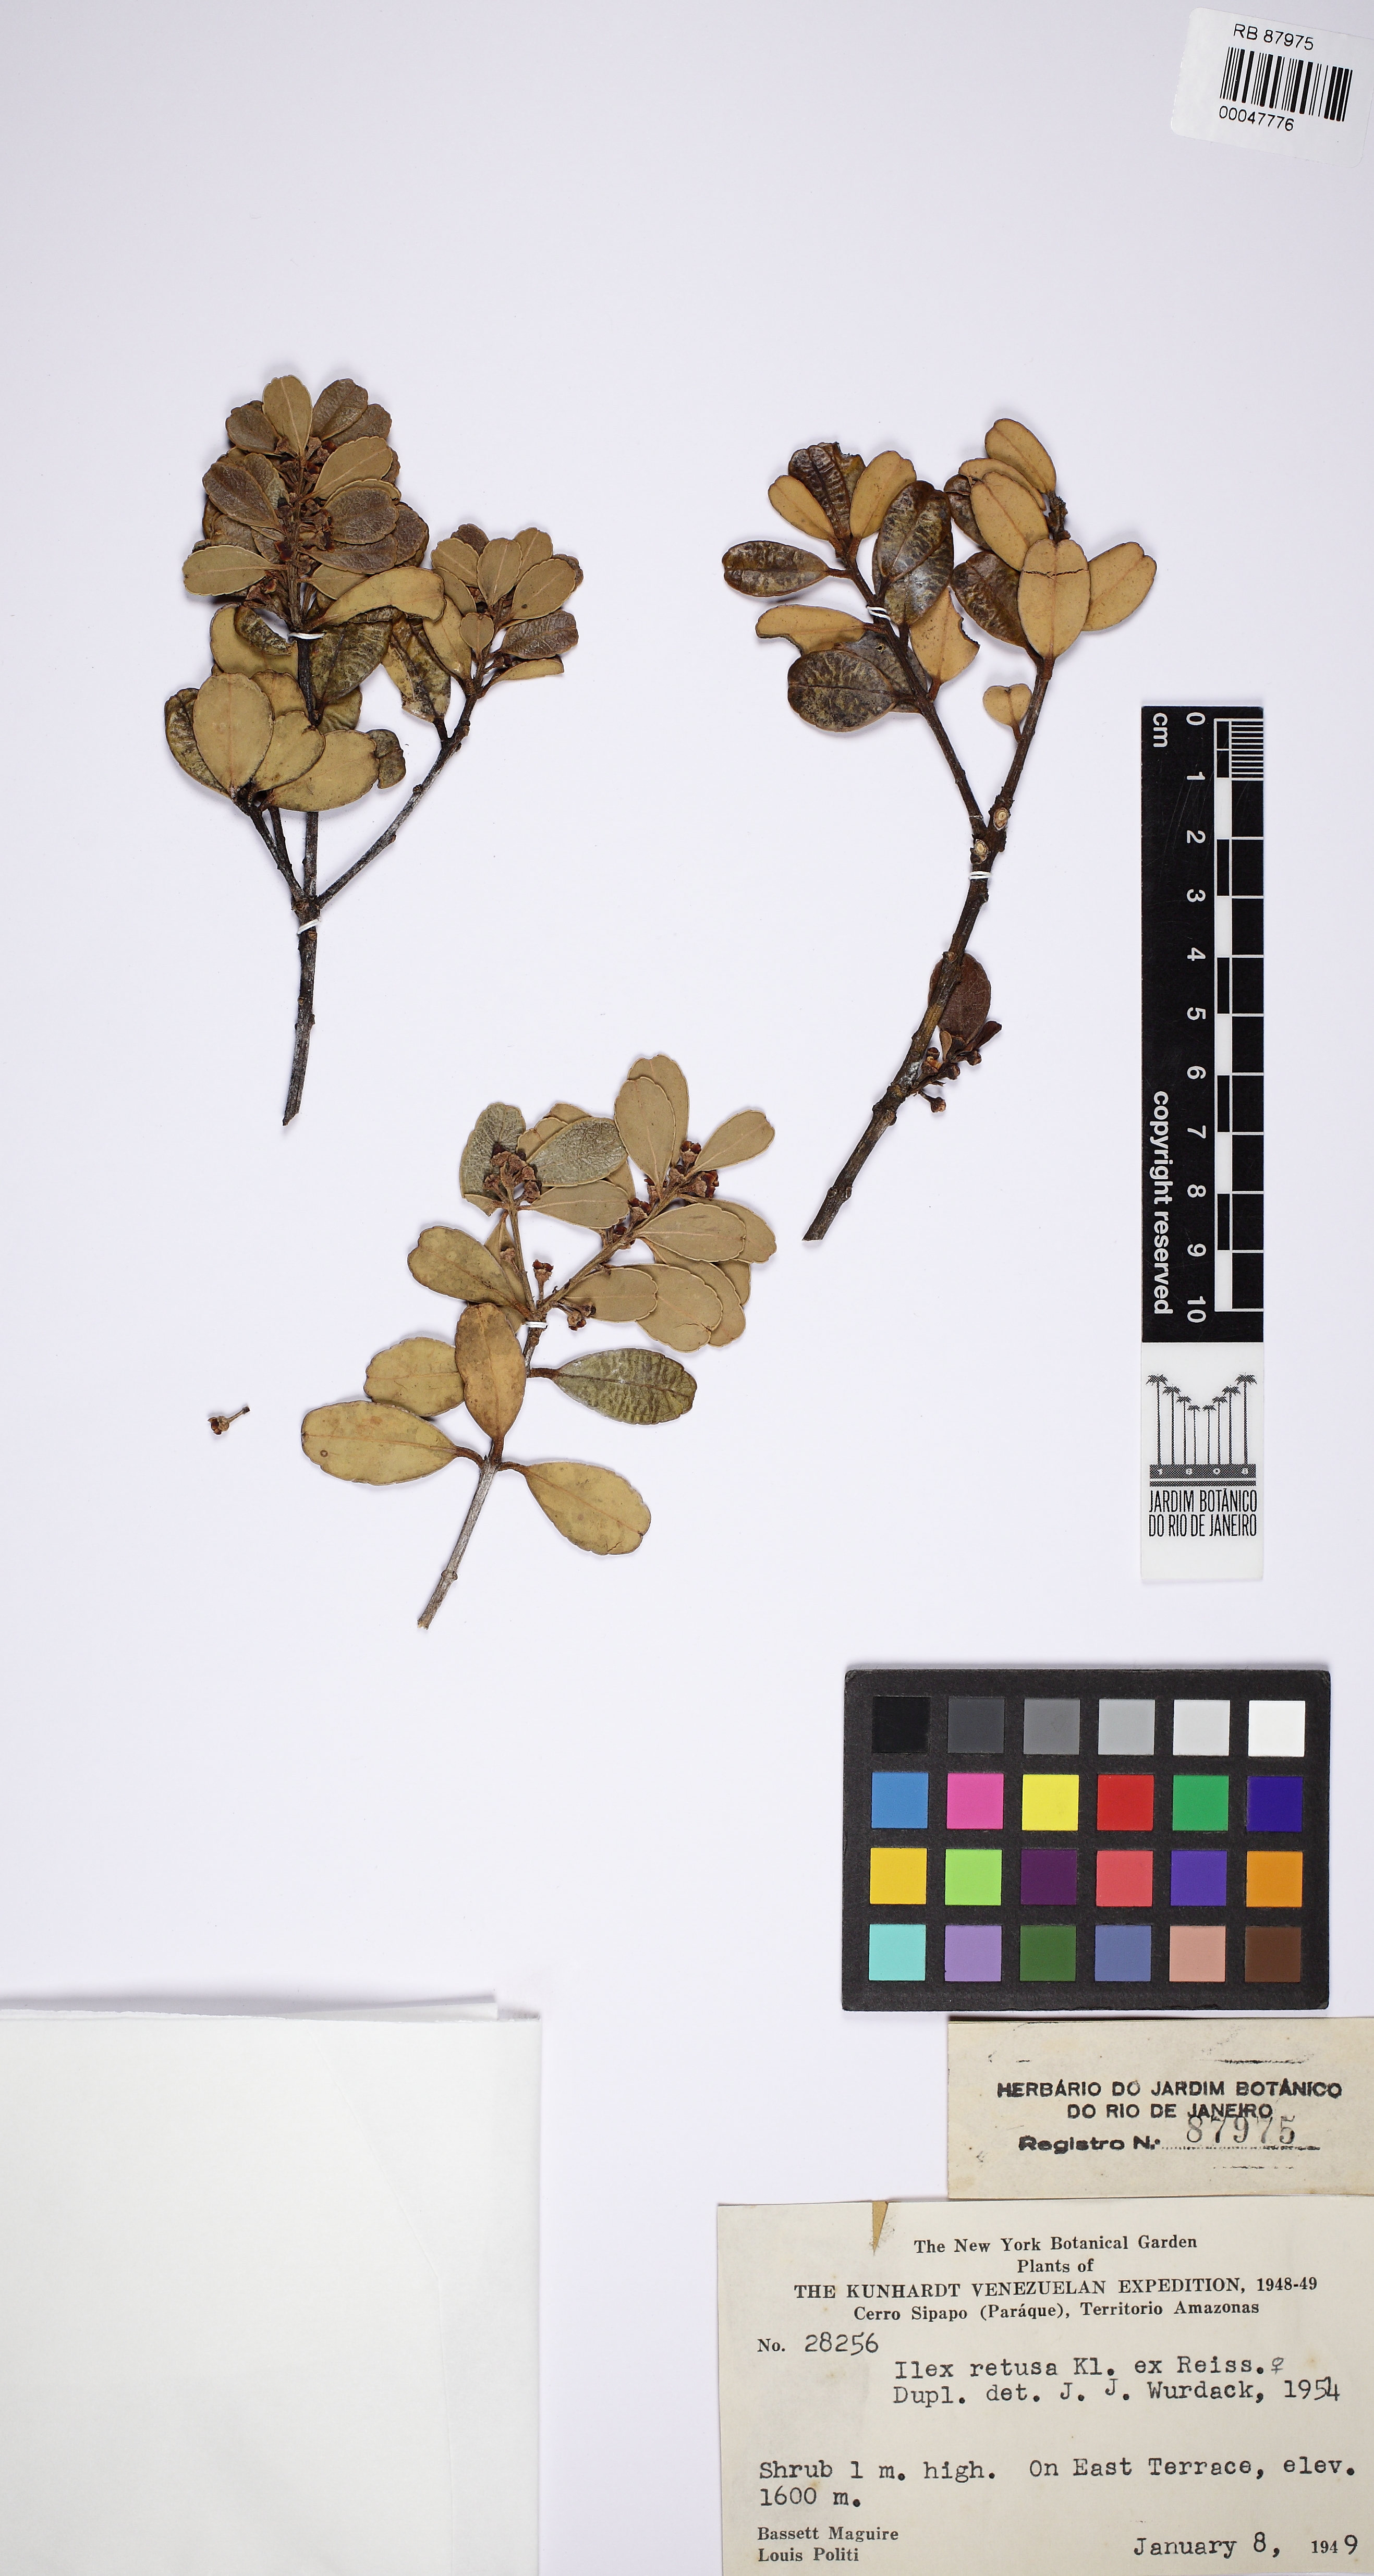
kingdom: Plantae
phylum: Tracheophyta
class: Magnoliopsida
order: Aquifoliales
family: Aquifoliaceae
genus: Ilex
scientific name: Ilex retusa
